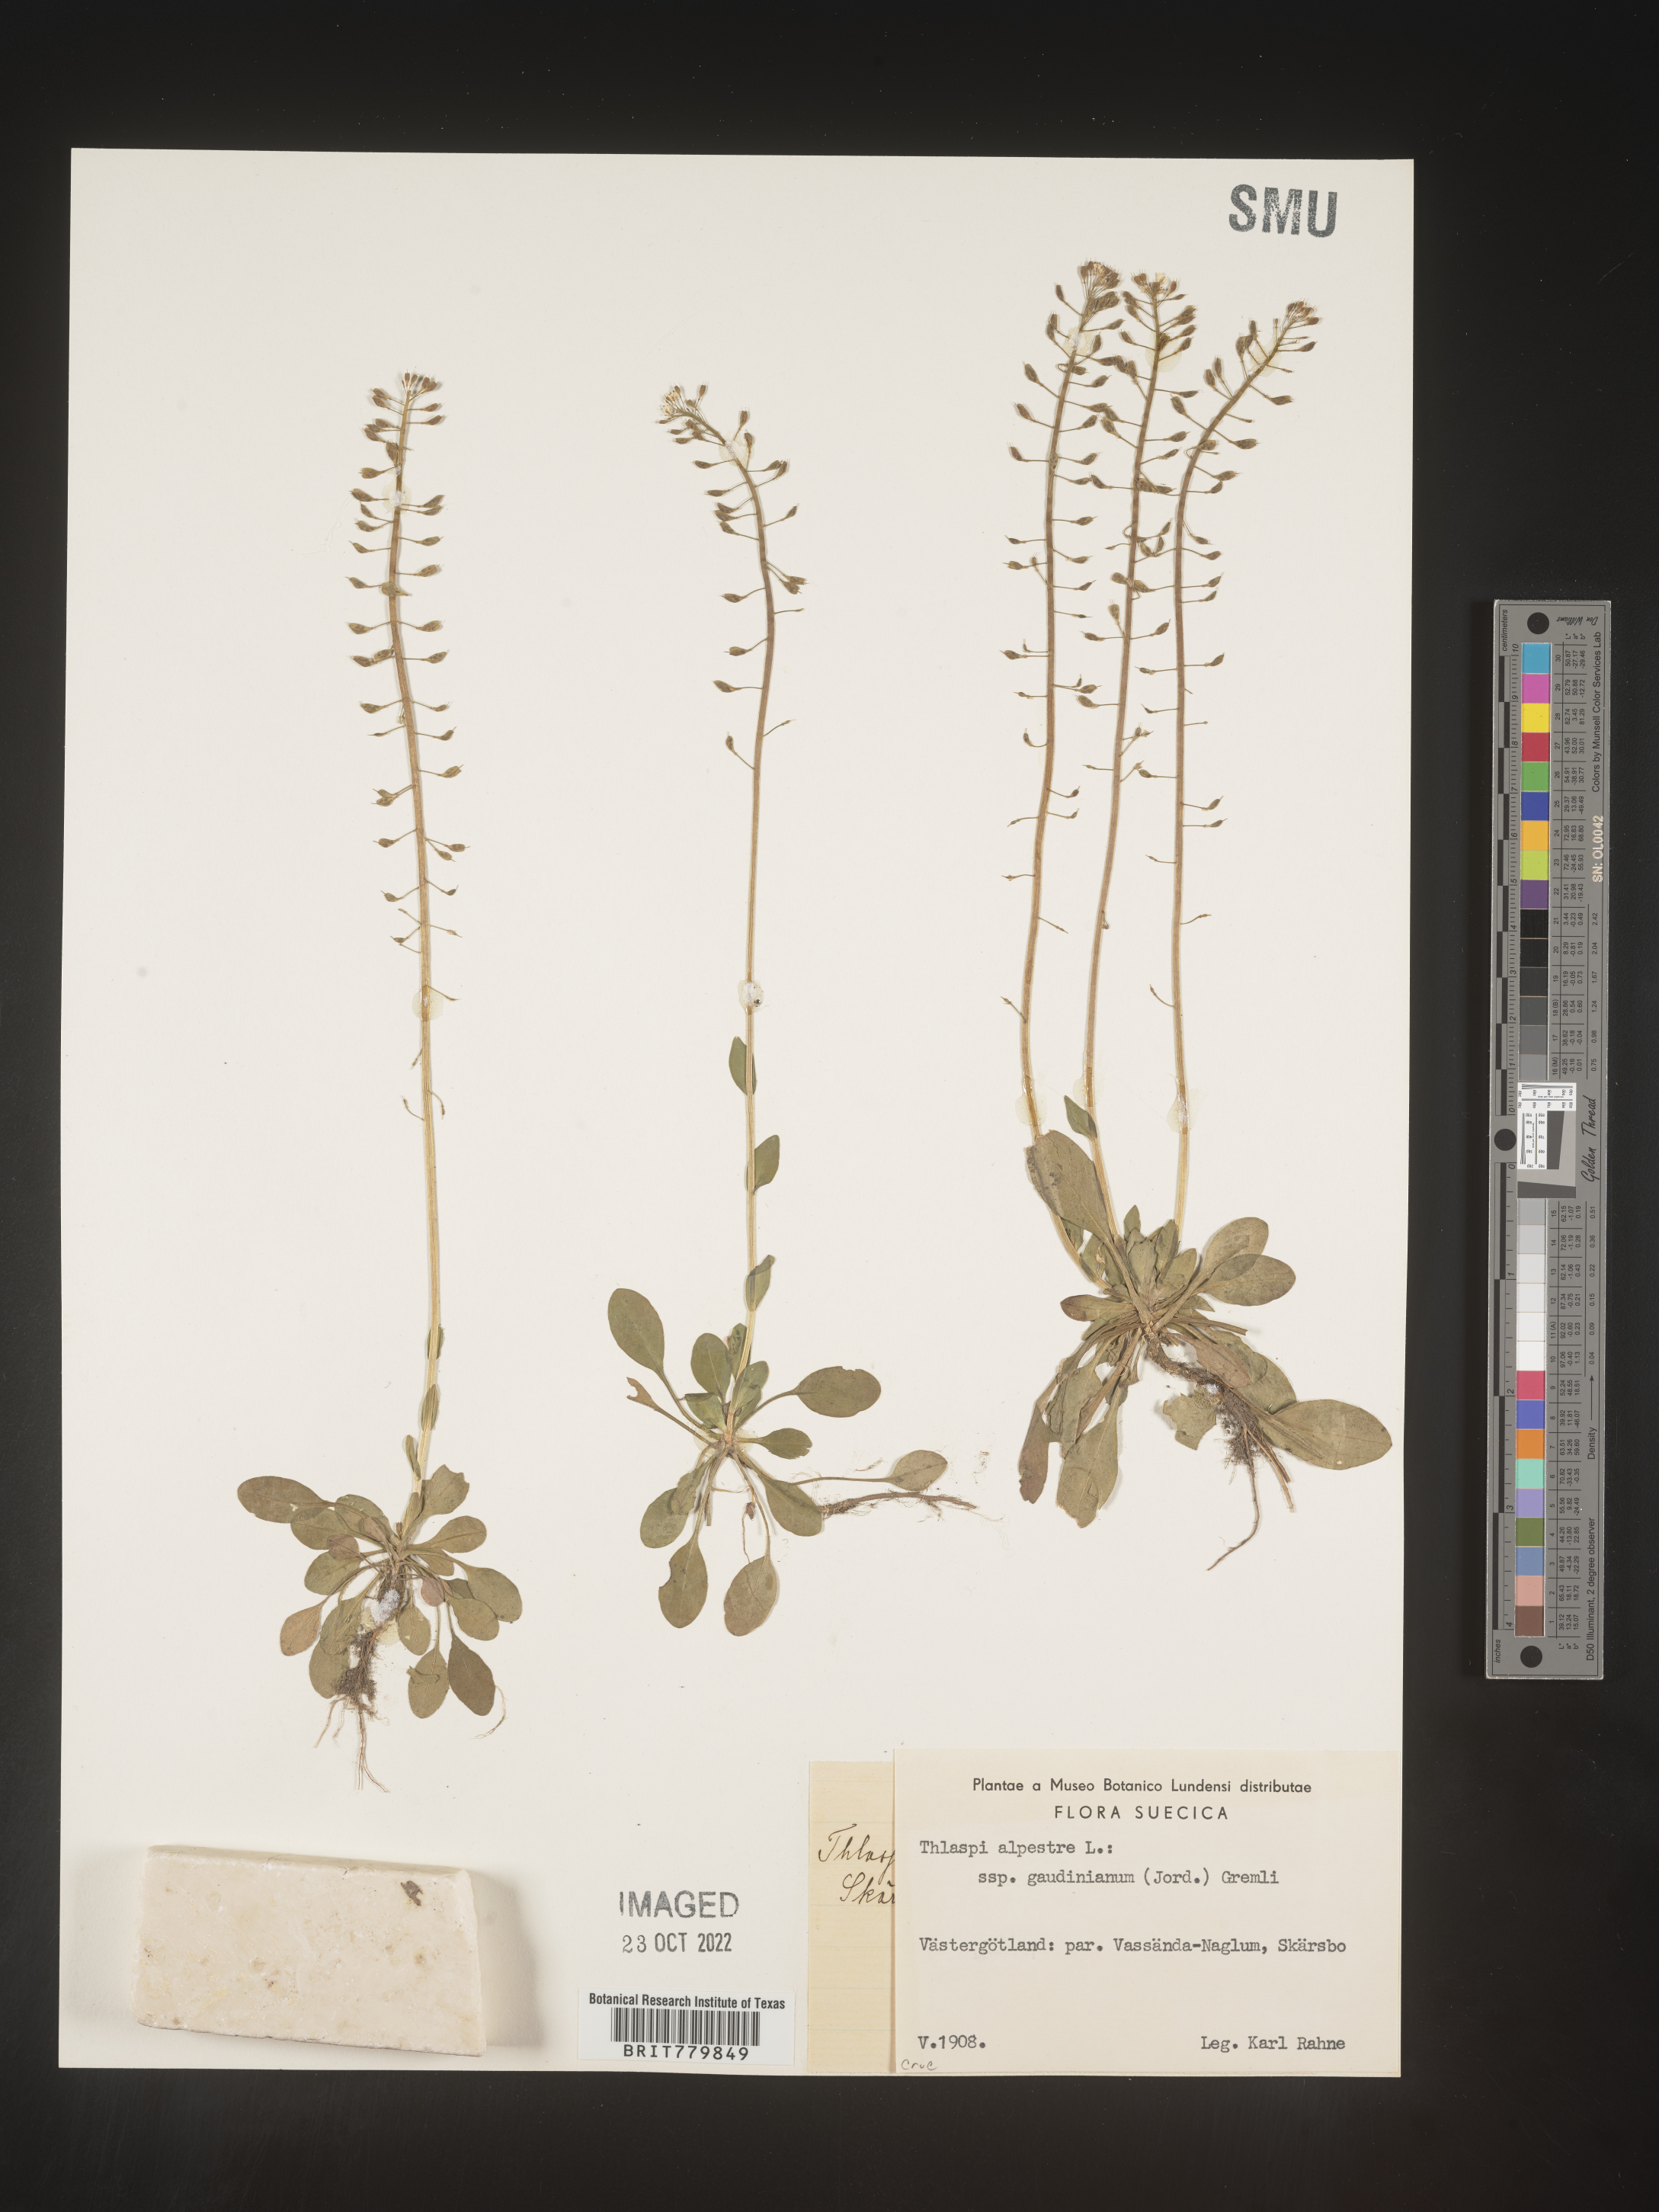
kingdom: Plantae
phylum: Tracheophyta
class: Magnoliopsida
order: Brassicales
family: Brassicaceae
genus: Thlaspi
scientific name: Thlaspi
